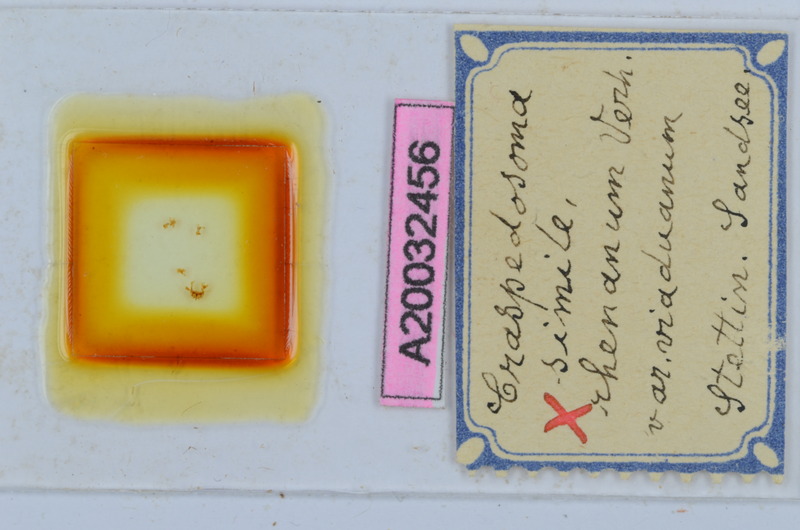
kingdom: Animalia
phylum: Arthropoda
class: Diplopoda
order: Chordeumatida
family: Craspedosomatidae
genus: Craspedosoma
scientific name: Craspedosoma rawlinsii
